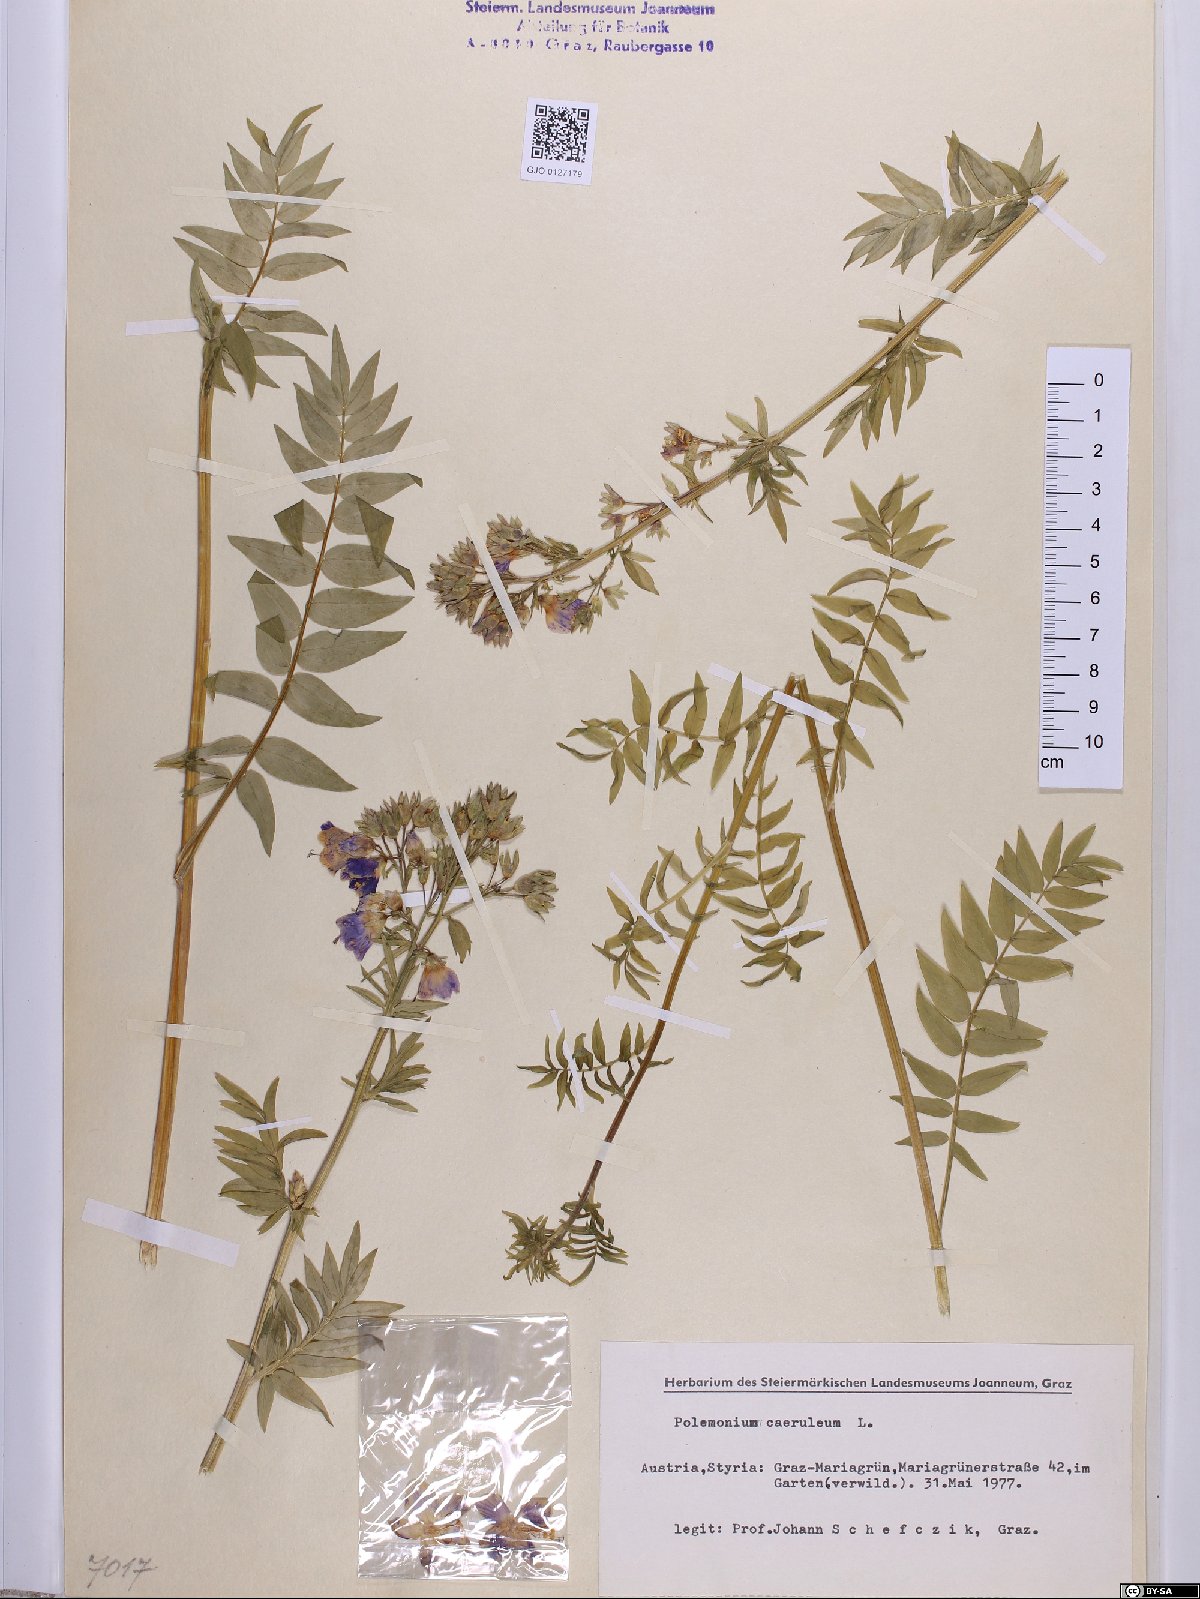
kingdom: Plantae
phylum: Tracheophyta
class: Magnoliopsida
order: Ericales
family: Polemoniaceae
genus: Polemonium
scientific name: Polemonium caeruleum
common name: Jacob's-ladder
